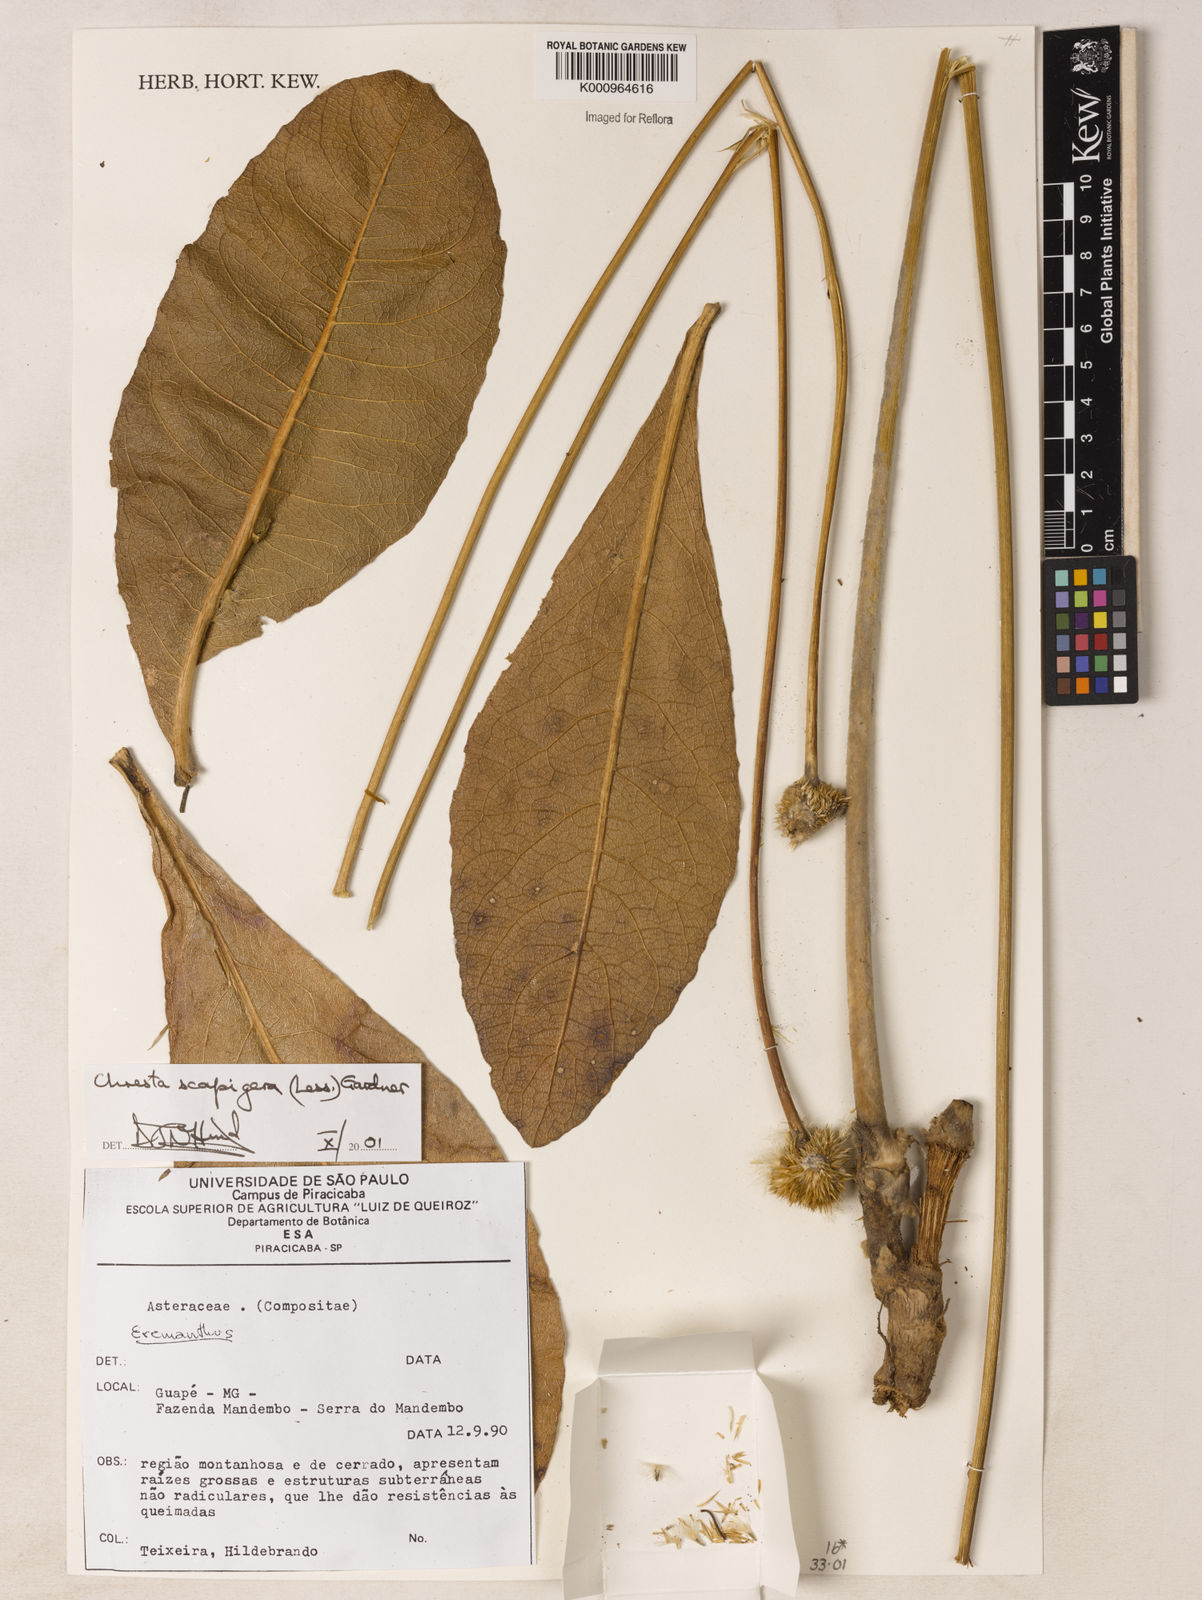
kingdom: Plantae
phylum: Tracheophyta
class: Magnoliopsida
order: Asterales
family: Asteraceae
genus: Chresta
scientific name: Chresta scapigera
